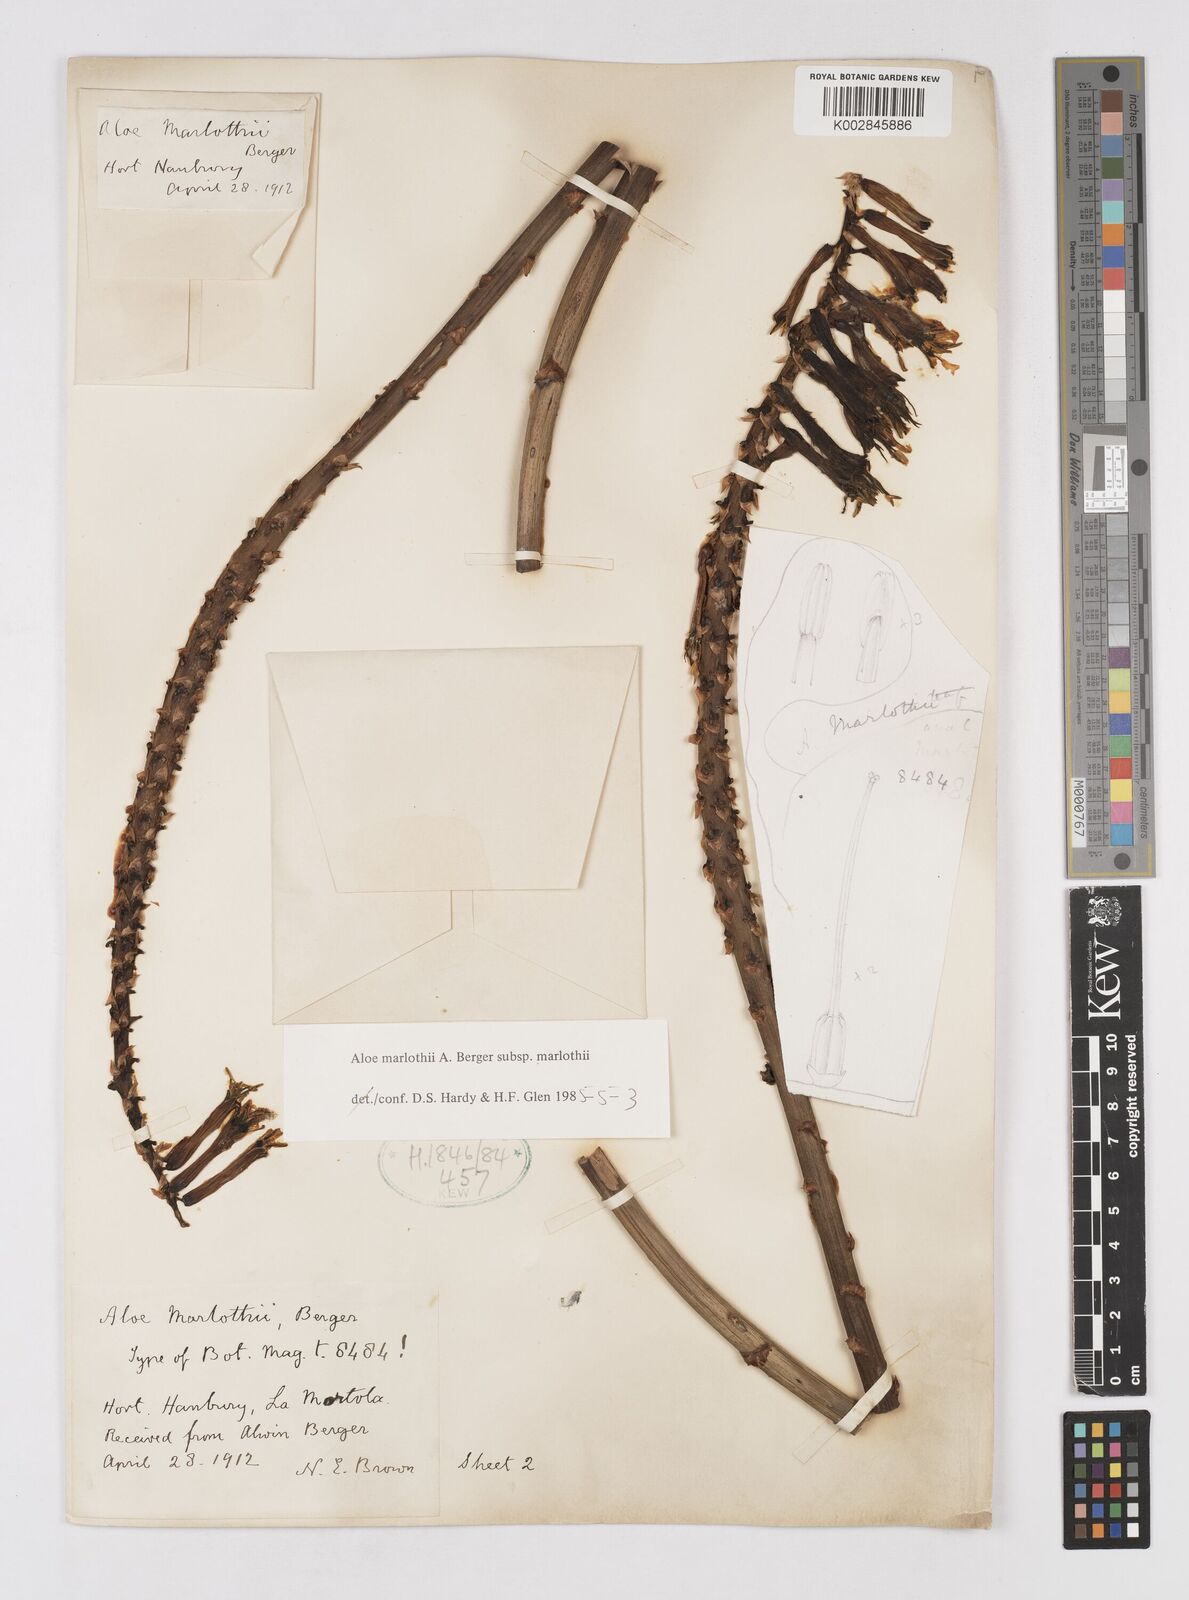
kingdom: Plantae
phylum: Tracheophyta
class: Liliopsida
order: Asparagales
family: Asphodelaceae
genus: Aloe
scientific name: Aloe marlothii
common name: Flat-flowered aloe
